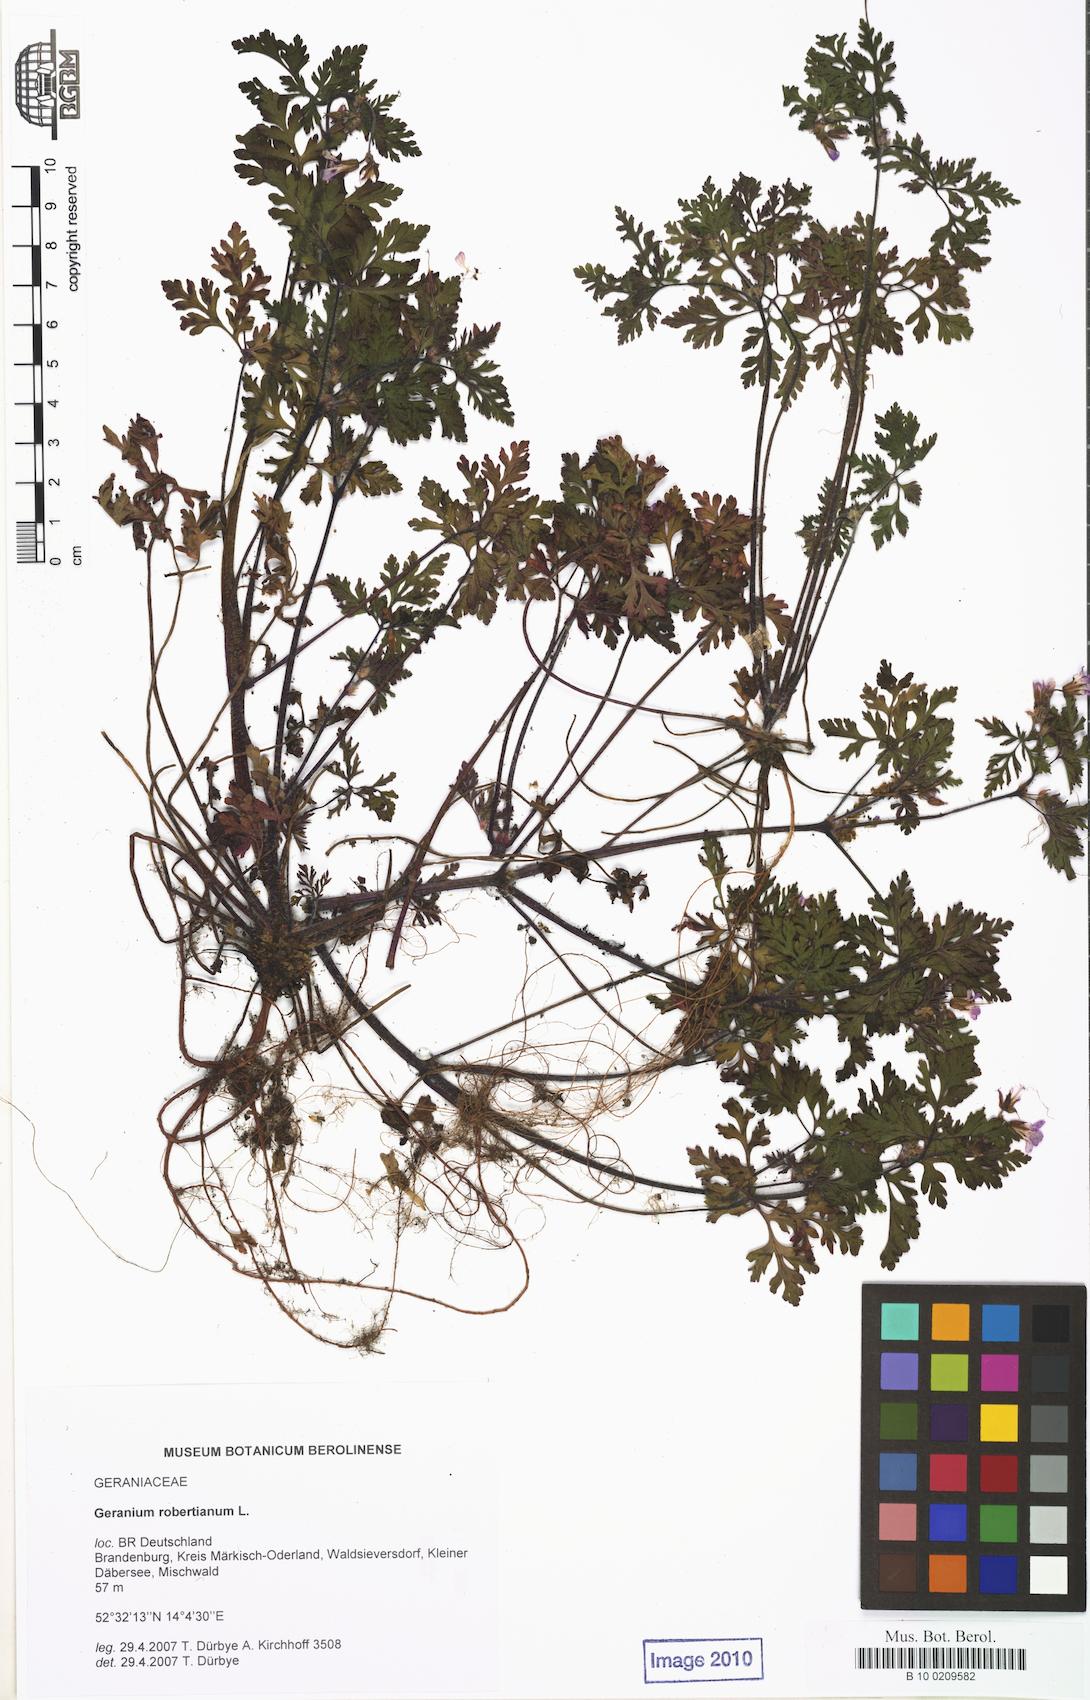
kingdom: Plantae
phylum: Tracheophyta
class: Magnoliopsida
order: Geraniales
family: Geraniaceae
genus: Geranium
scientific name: Geranium robertianum
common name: Herb-robert
